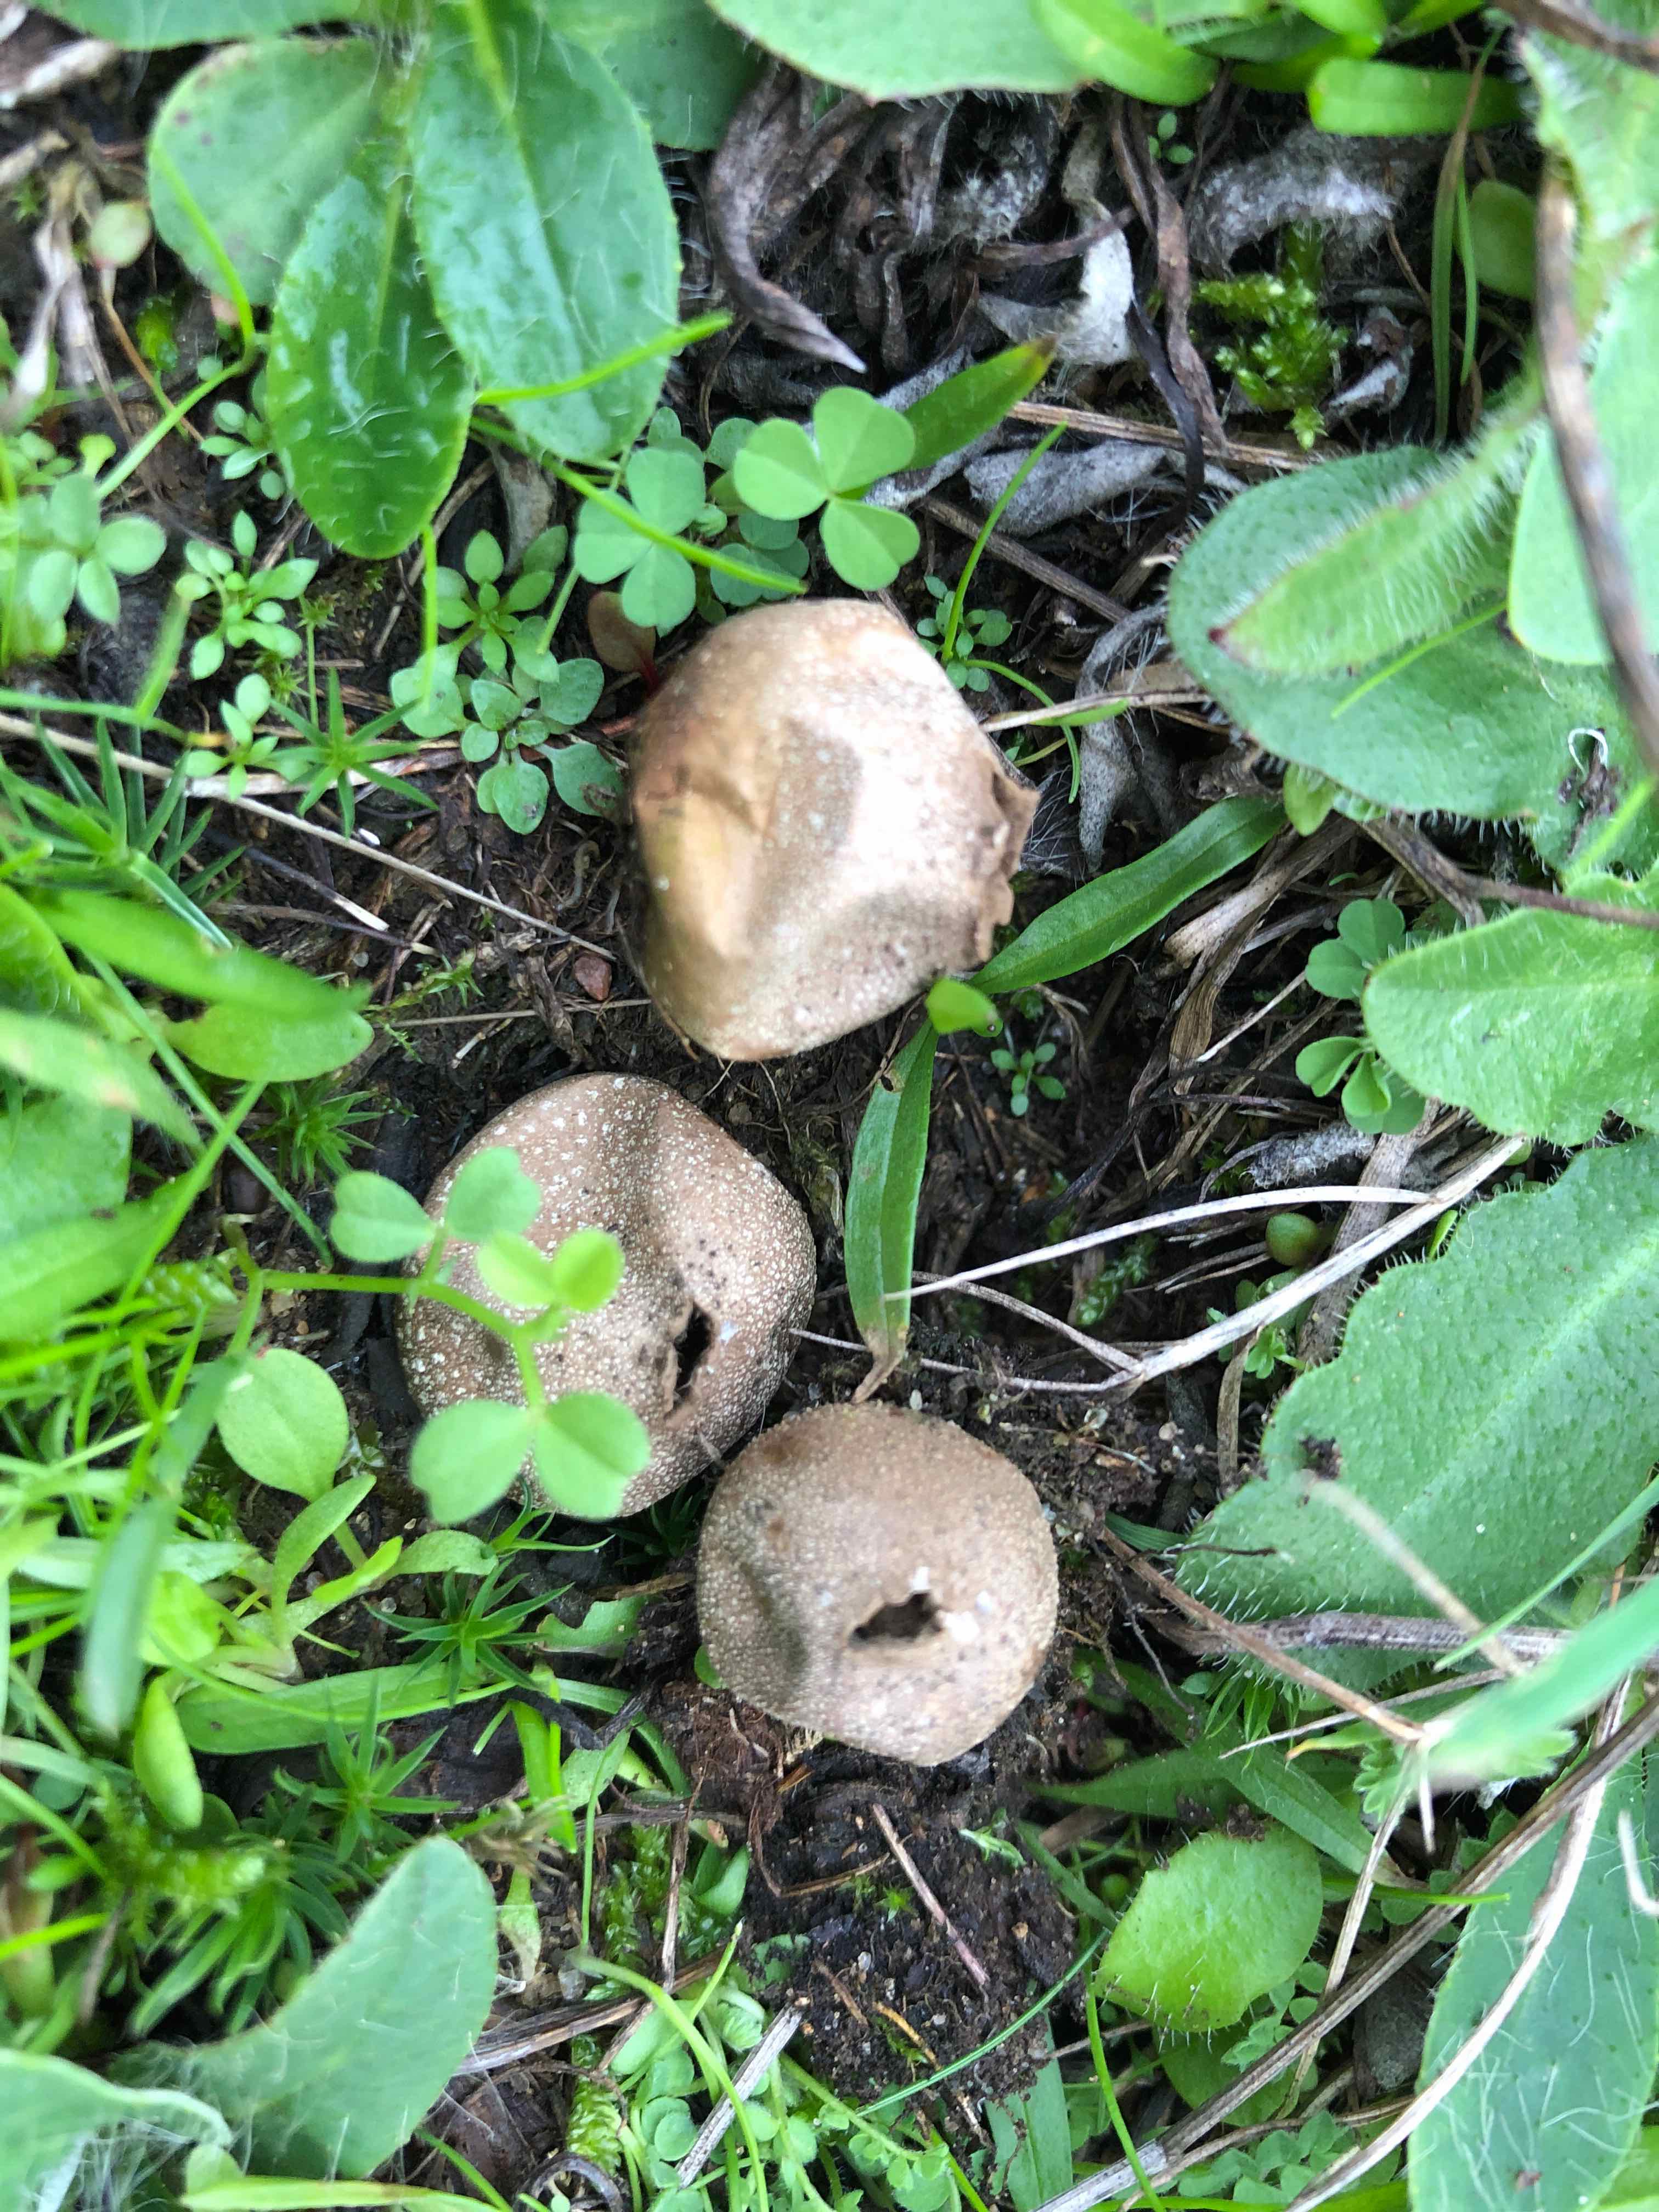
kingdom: Fungi
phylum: Basidiomycota
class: Agaricomycetes
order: Agaricales
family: Lycoperdaceae
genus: Lycoperdon
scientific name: Lycoperdon lividum
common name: mark-støvbold
